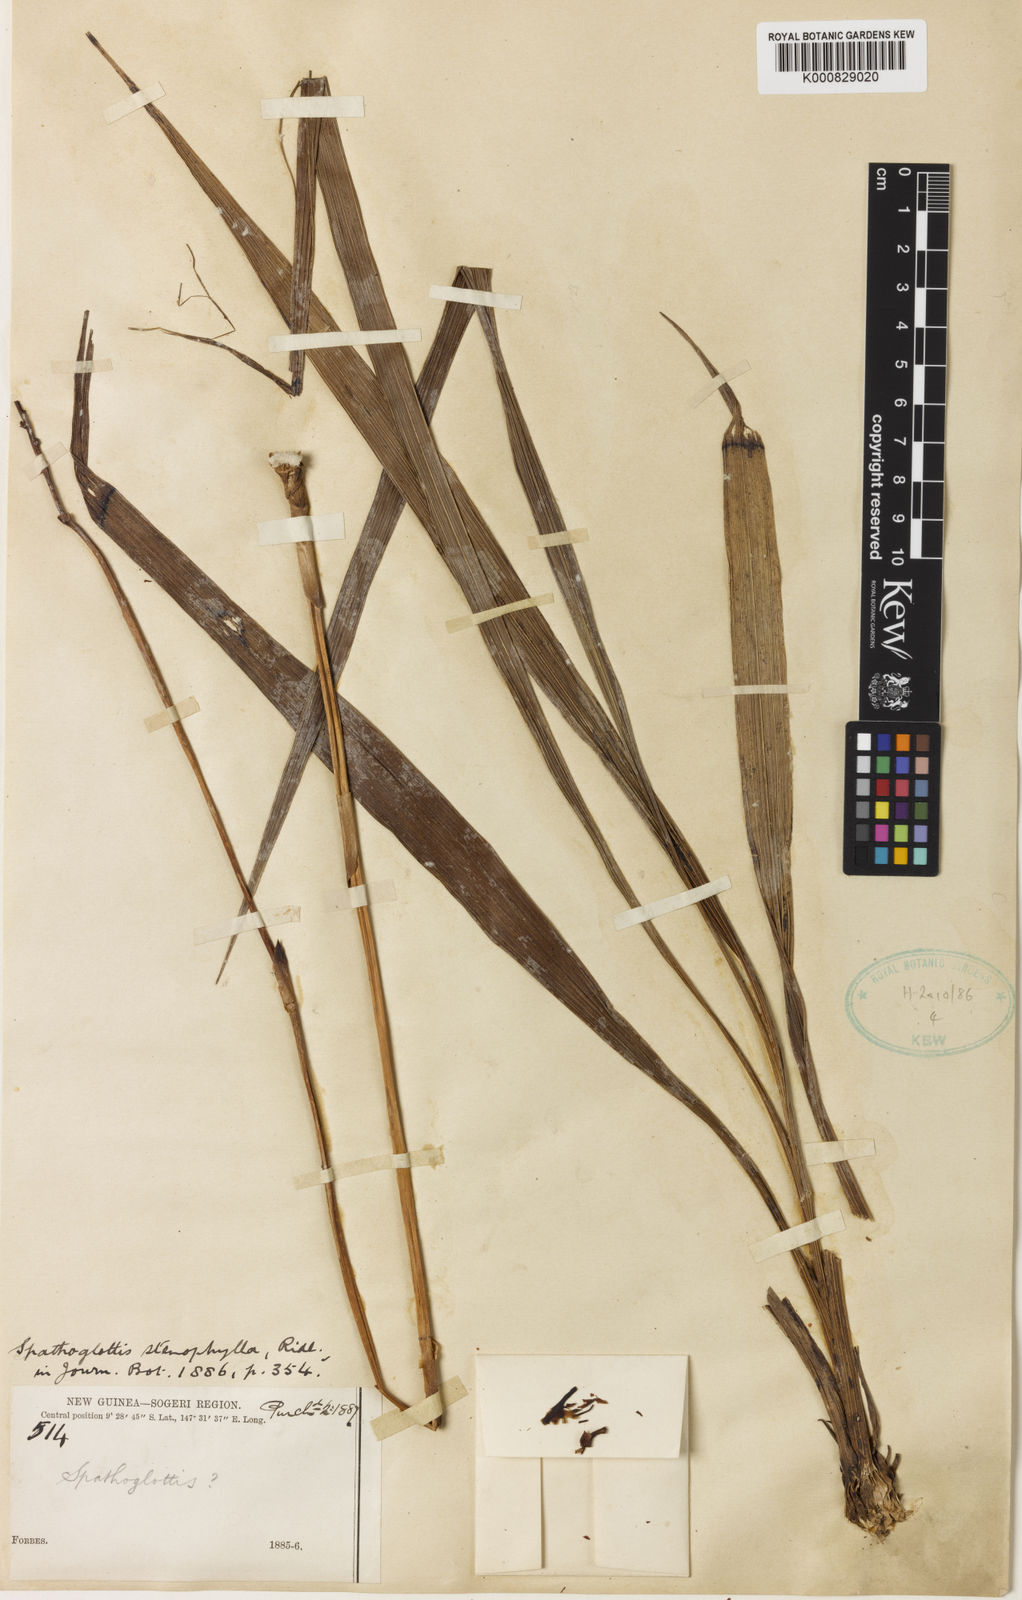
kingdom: Plantae
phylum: Tracheophyta
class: Liliopsida
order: Asparagales
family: Orchidaceae
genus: Spathoglottis
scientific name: Spathoglottis paulinae
